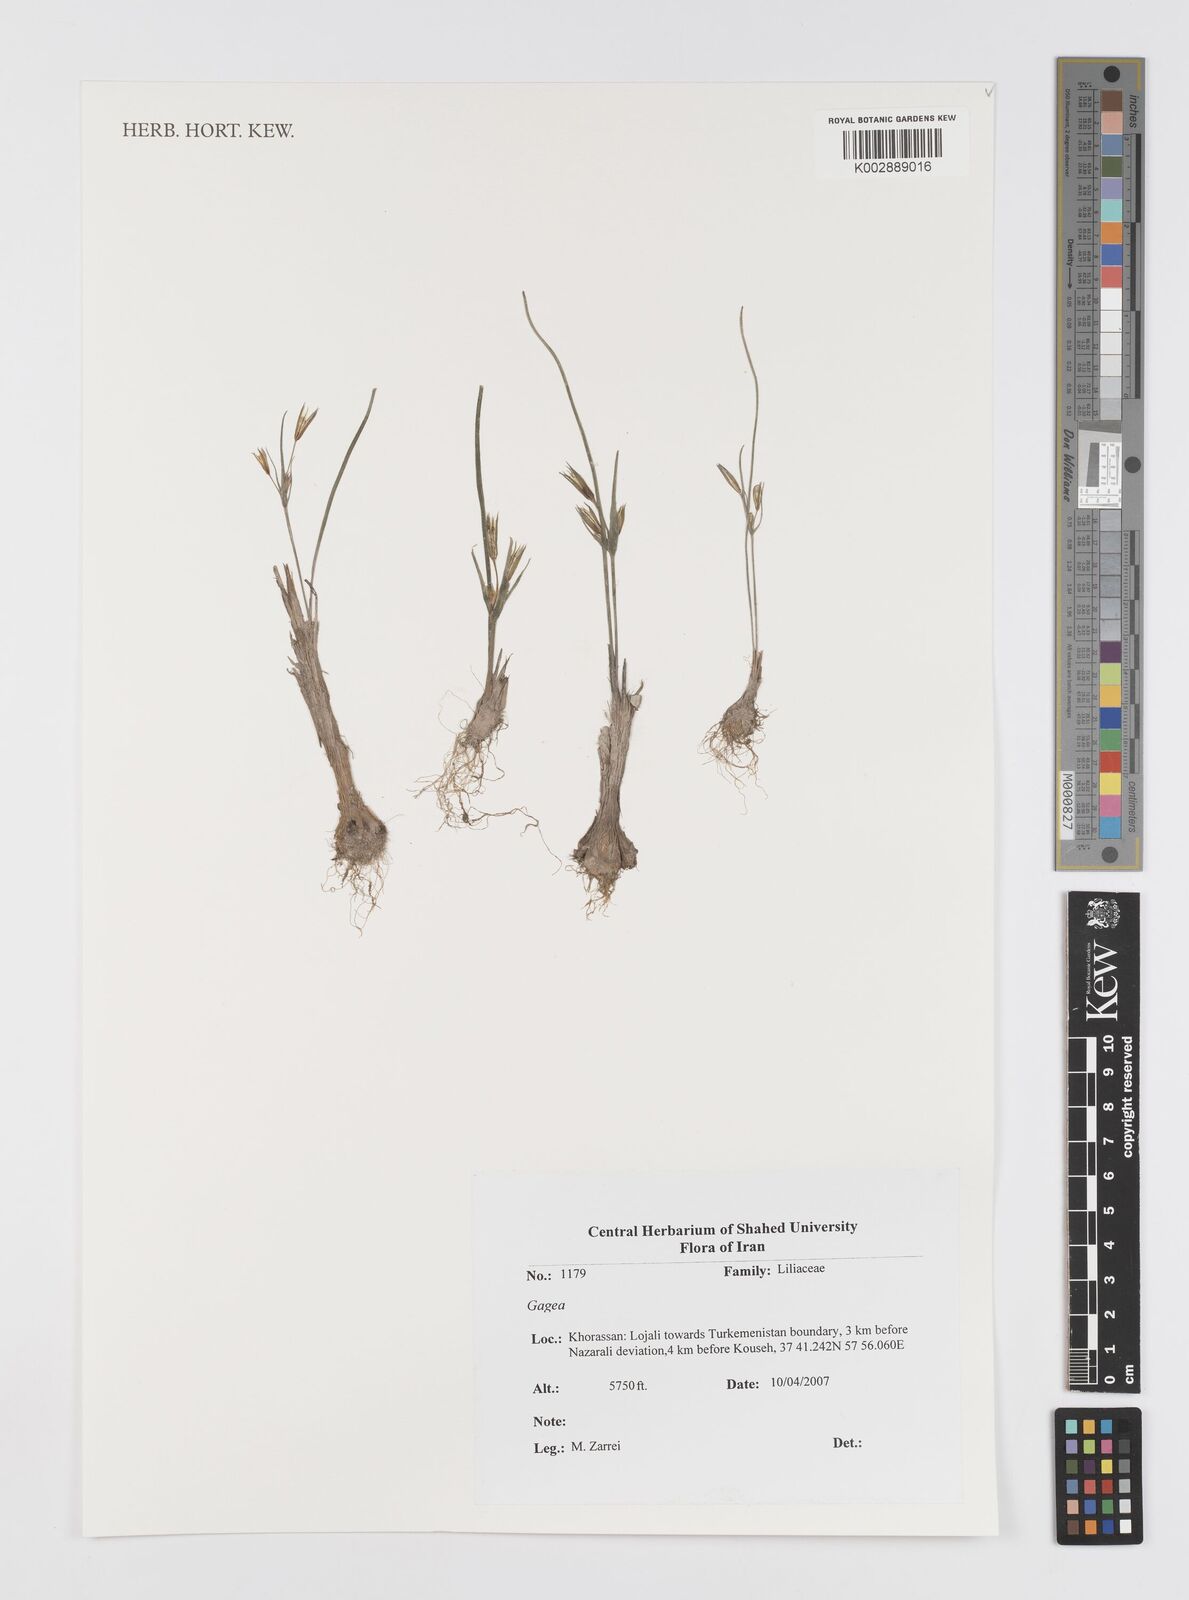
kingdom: Plantae
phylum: Tracheophyta
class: Liliopsida
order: Liliales
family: Liliaceae
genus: Gagea
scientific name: Gagea
